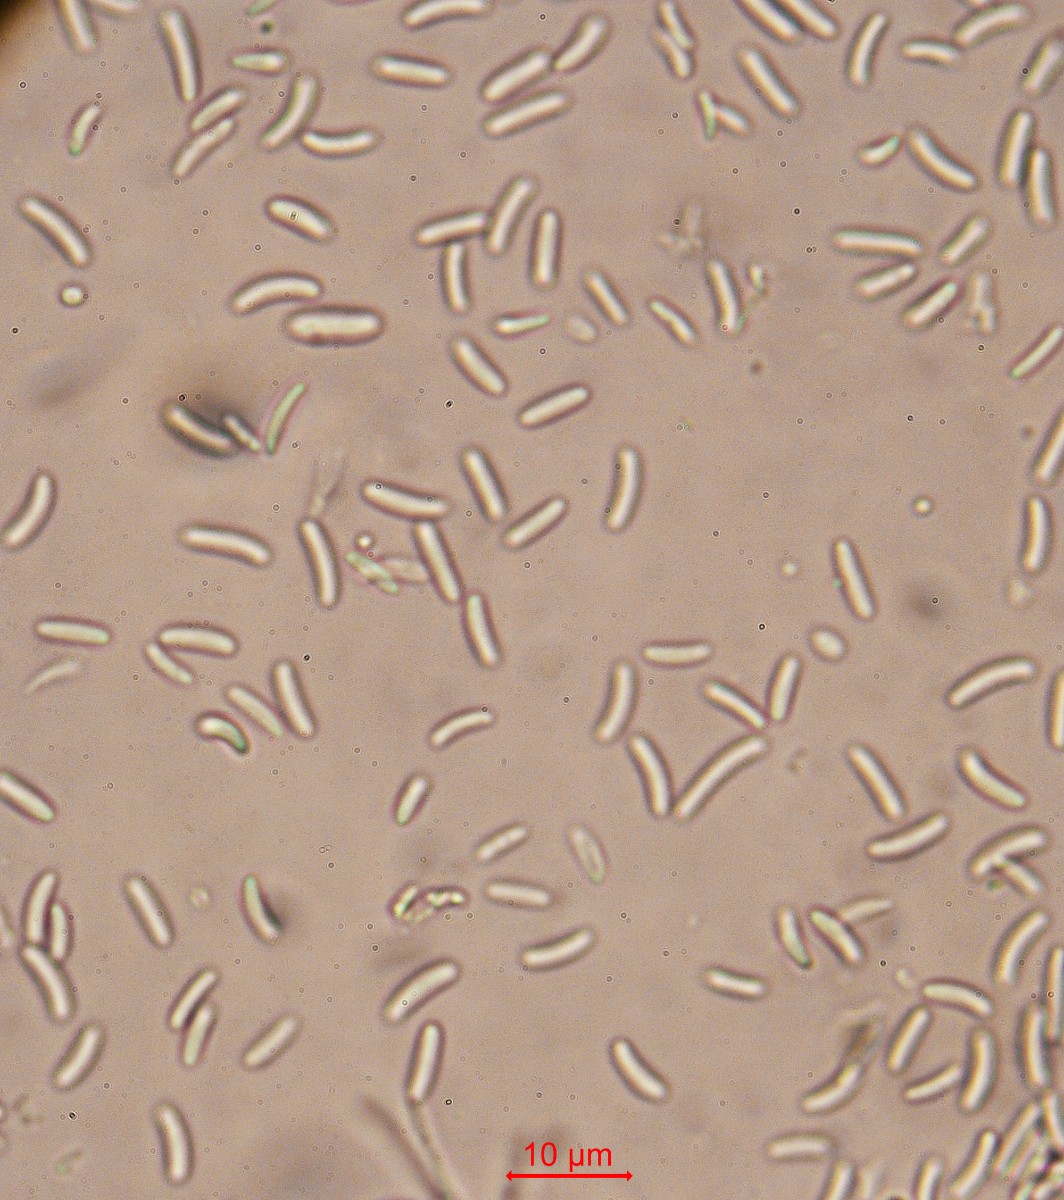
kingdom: Fungi
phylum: Ascomycota
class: Sordariomycetes
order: Diaporthales
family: Valsaceae
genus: Cytospora
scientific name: Cytospora clypeata
